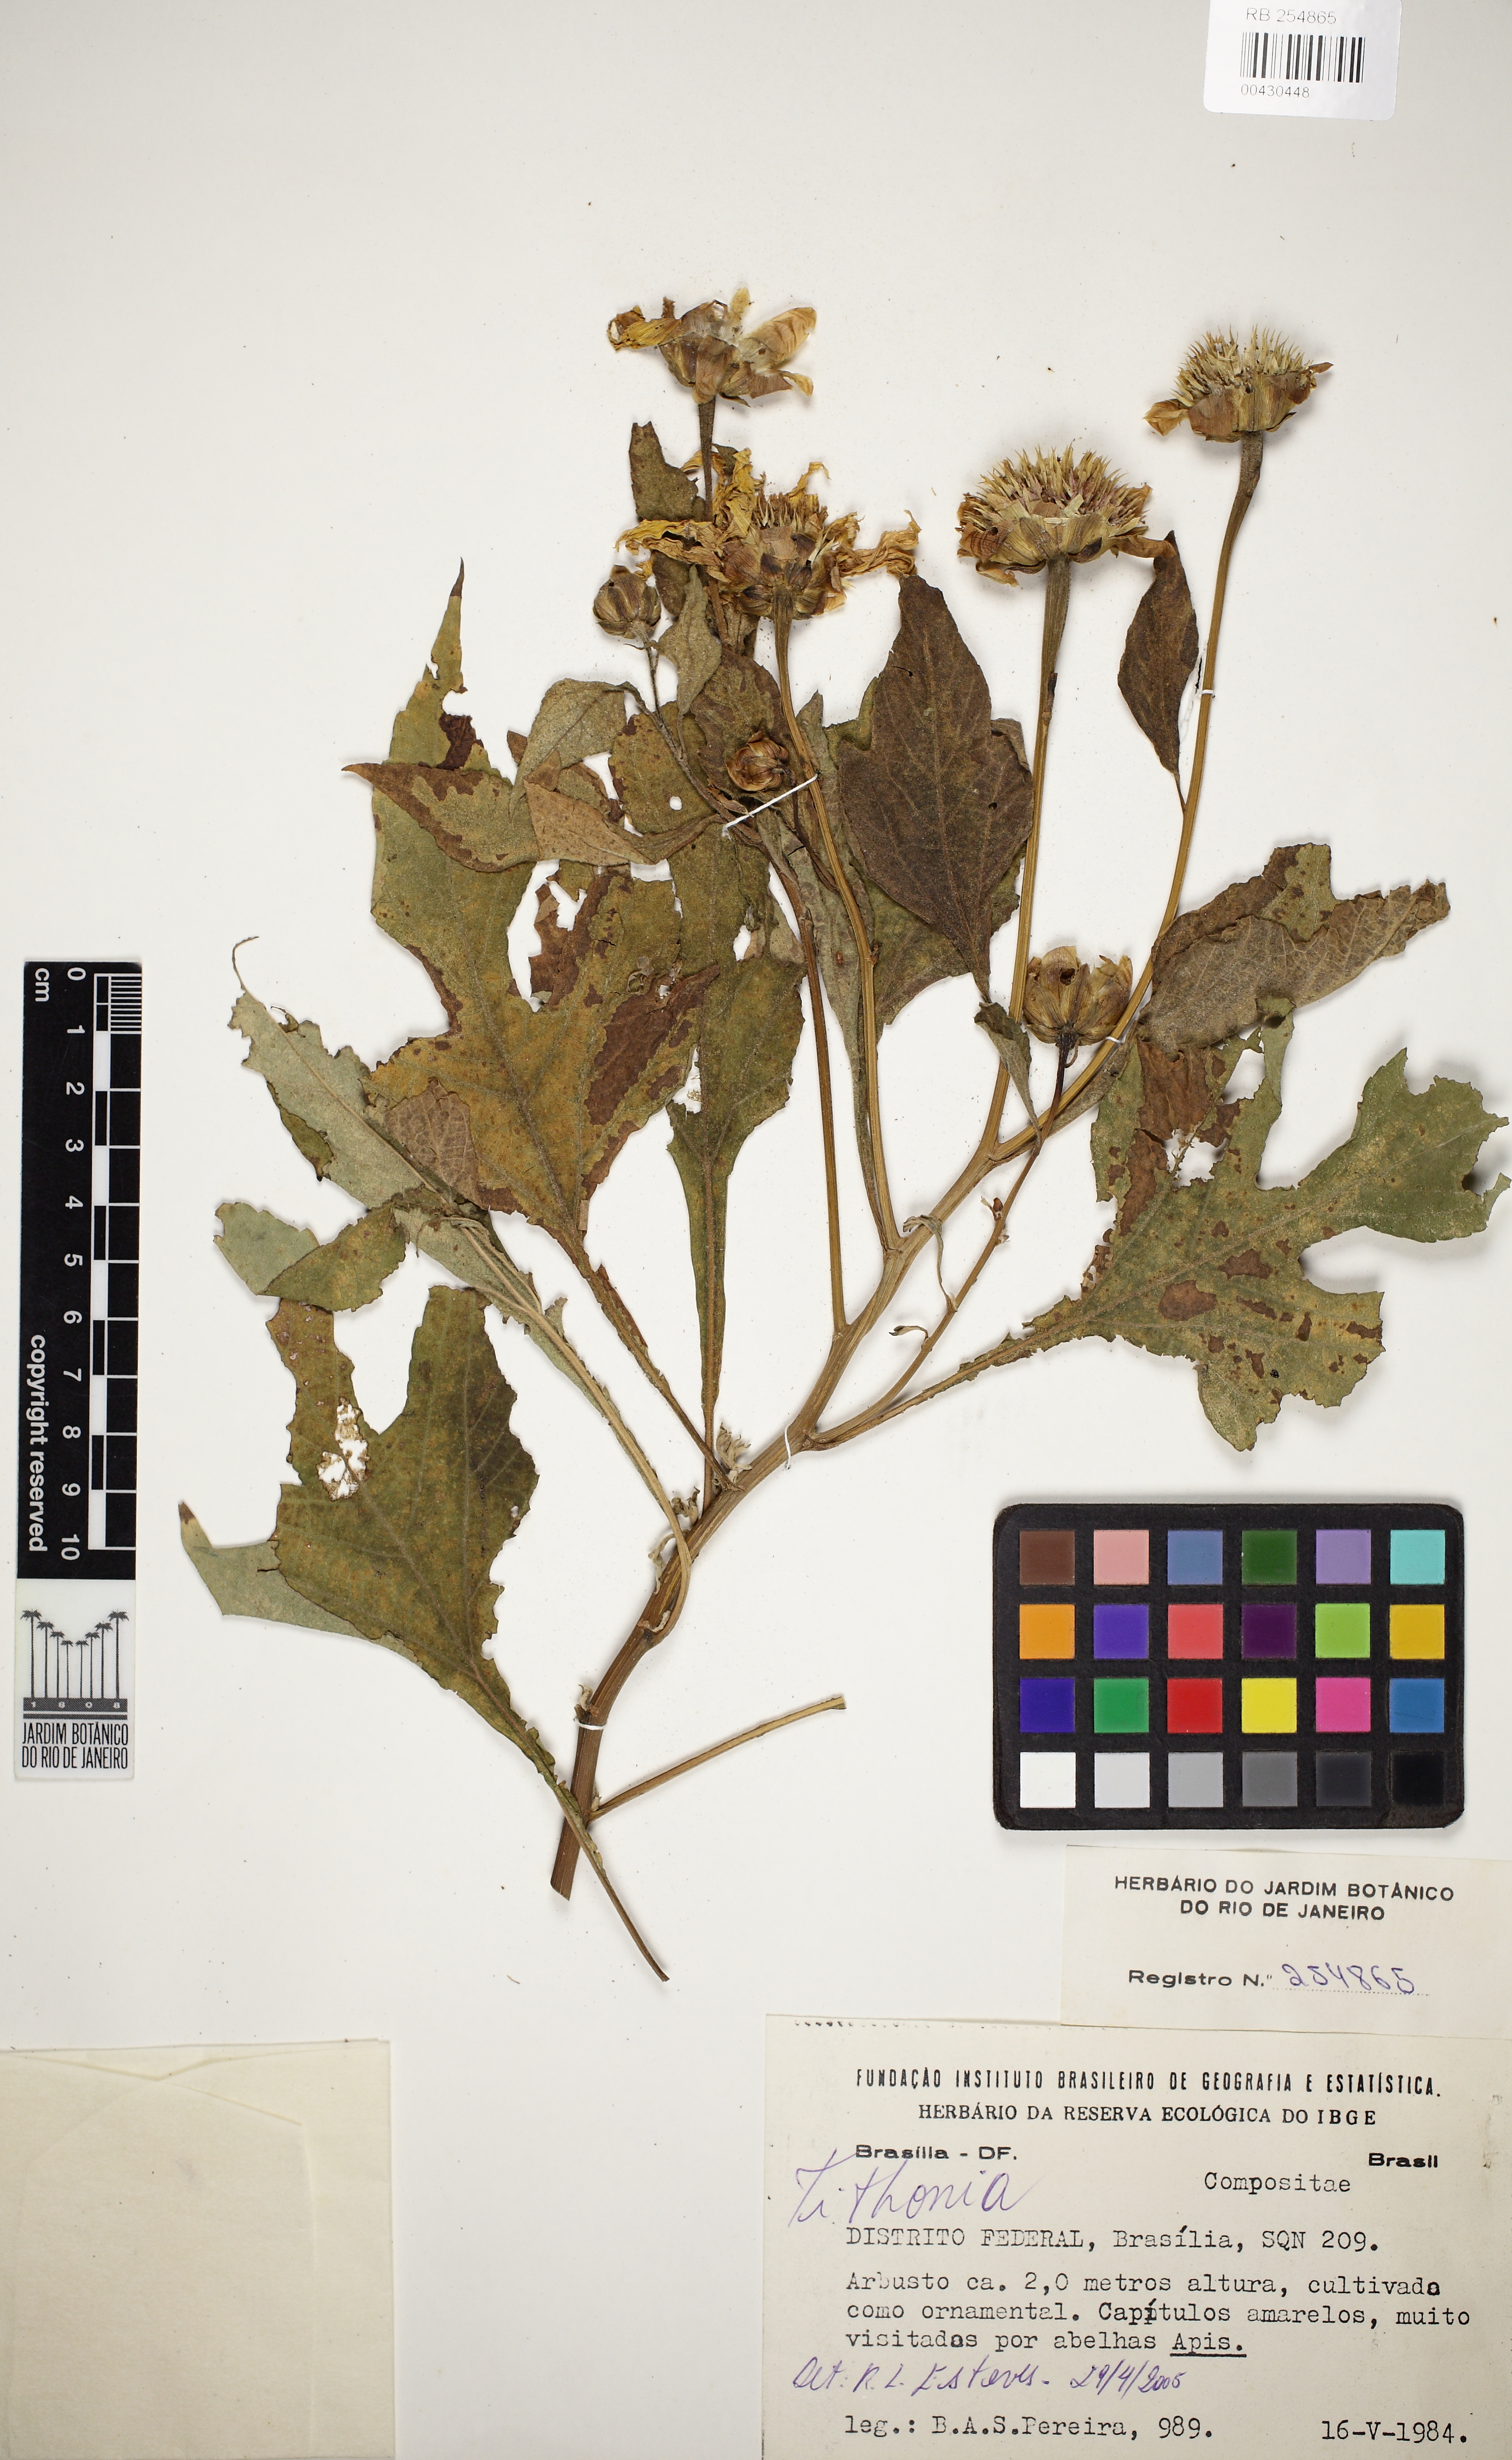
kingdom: Plantae
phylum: Tracheophyta
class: Magnoliopsida
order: Asterales
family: Asteraceae
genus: Tithonia
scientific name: Tithonia
